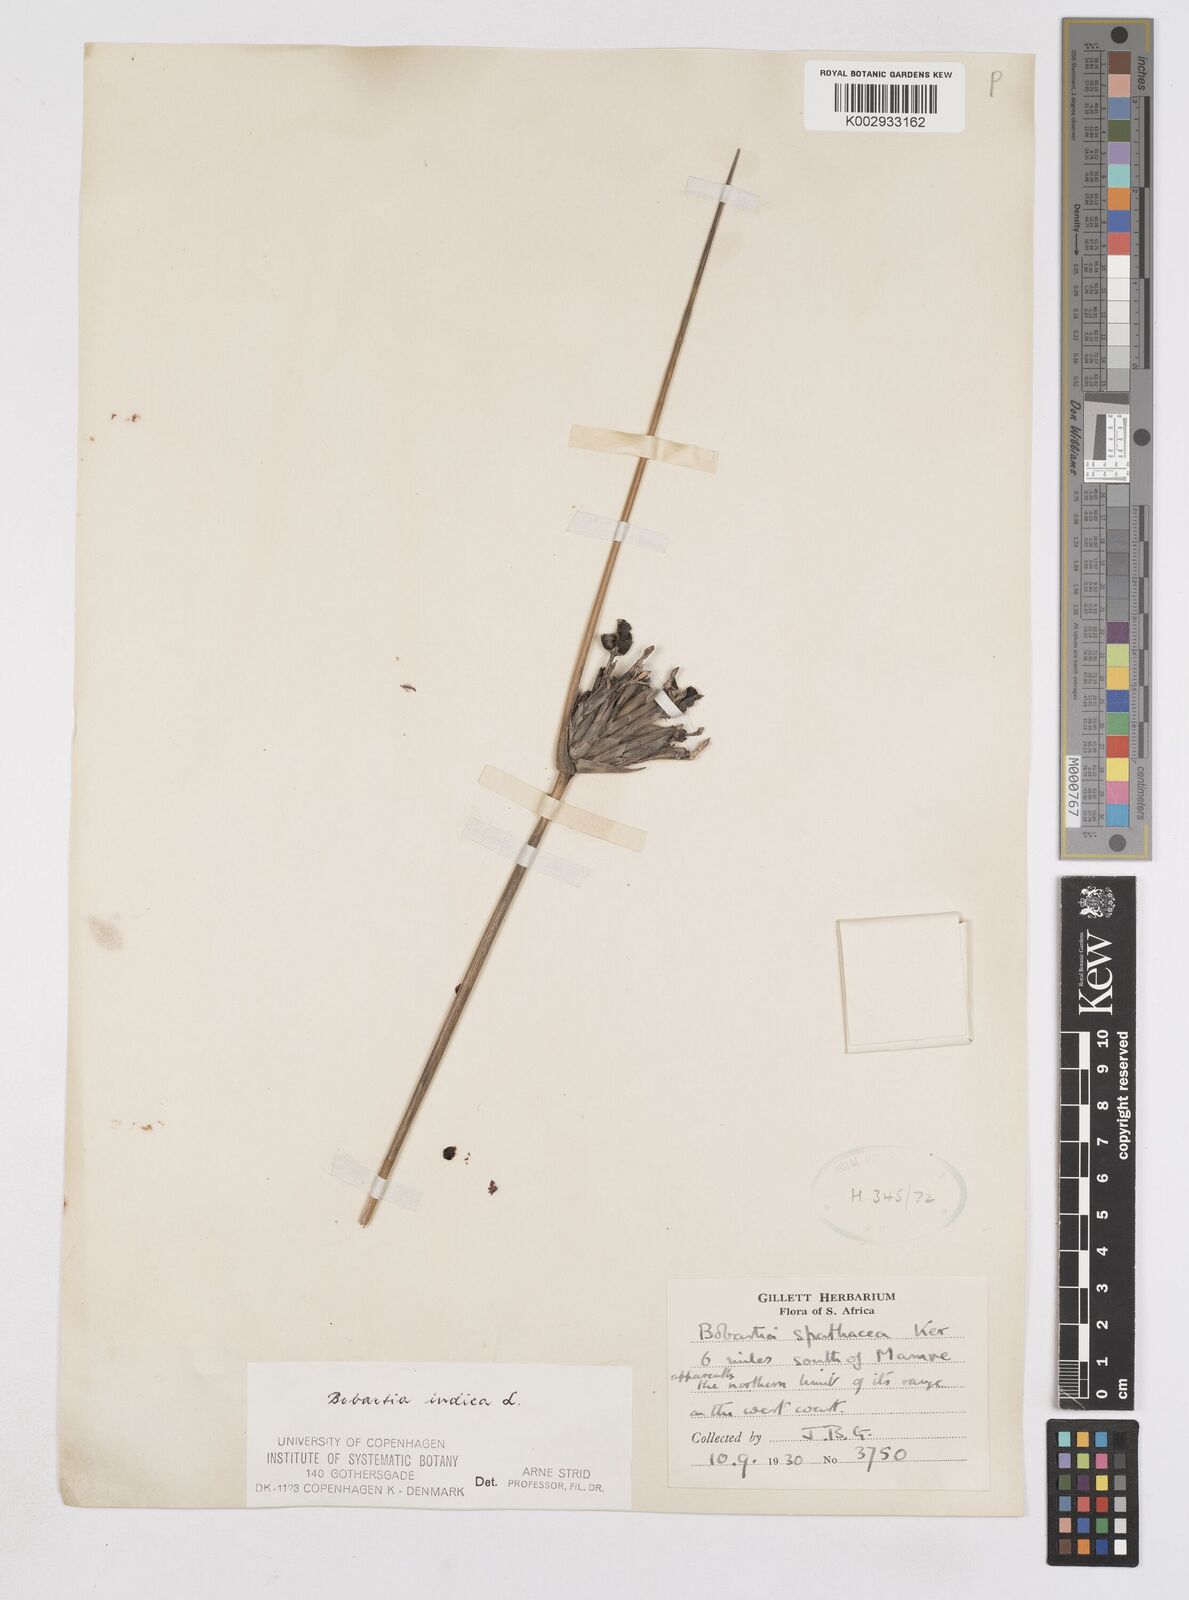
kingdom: Plantae
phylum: Tracheophyta
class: Liliopsida
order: Asparagales
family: Iridaceae
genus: Bobartia
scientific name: Bobartia indica
